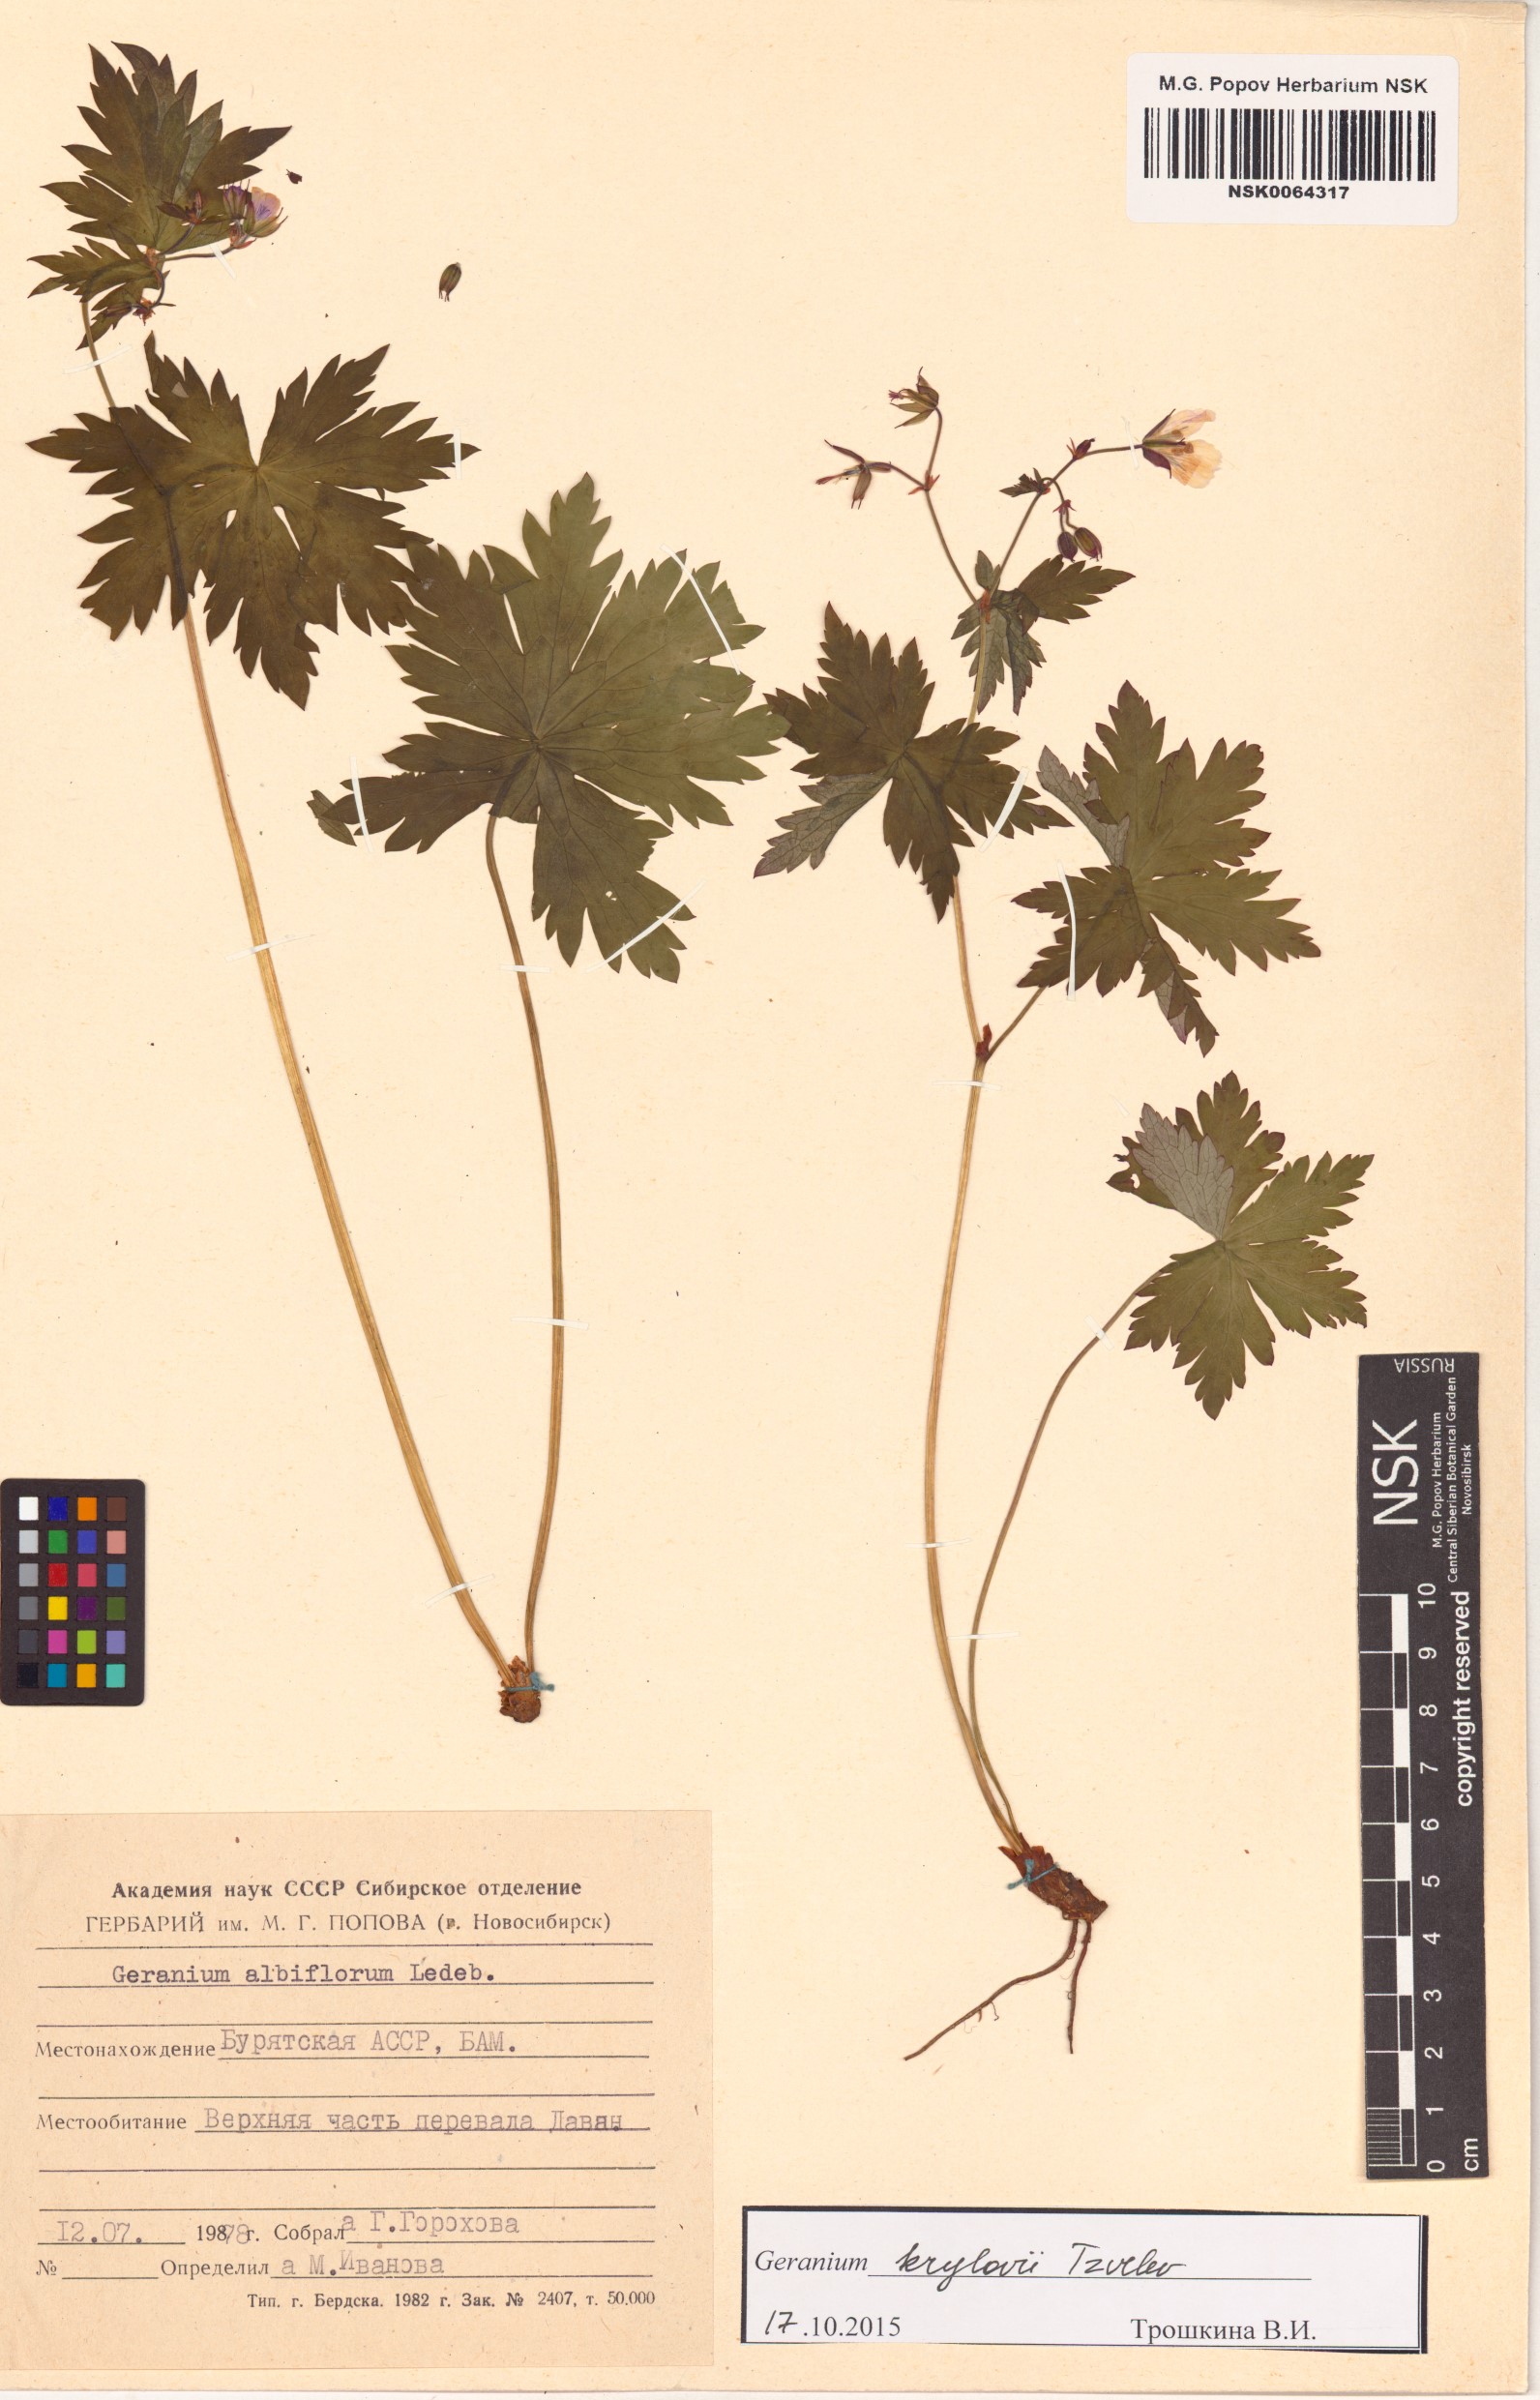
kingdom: Plantae
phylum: Tracheophyta
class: Magnoliopsida
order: Geraniales
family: Geraniaceae
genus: Geranium
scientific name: Geranium sylvaticum
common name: Wood crane's-bill
